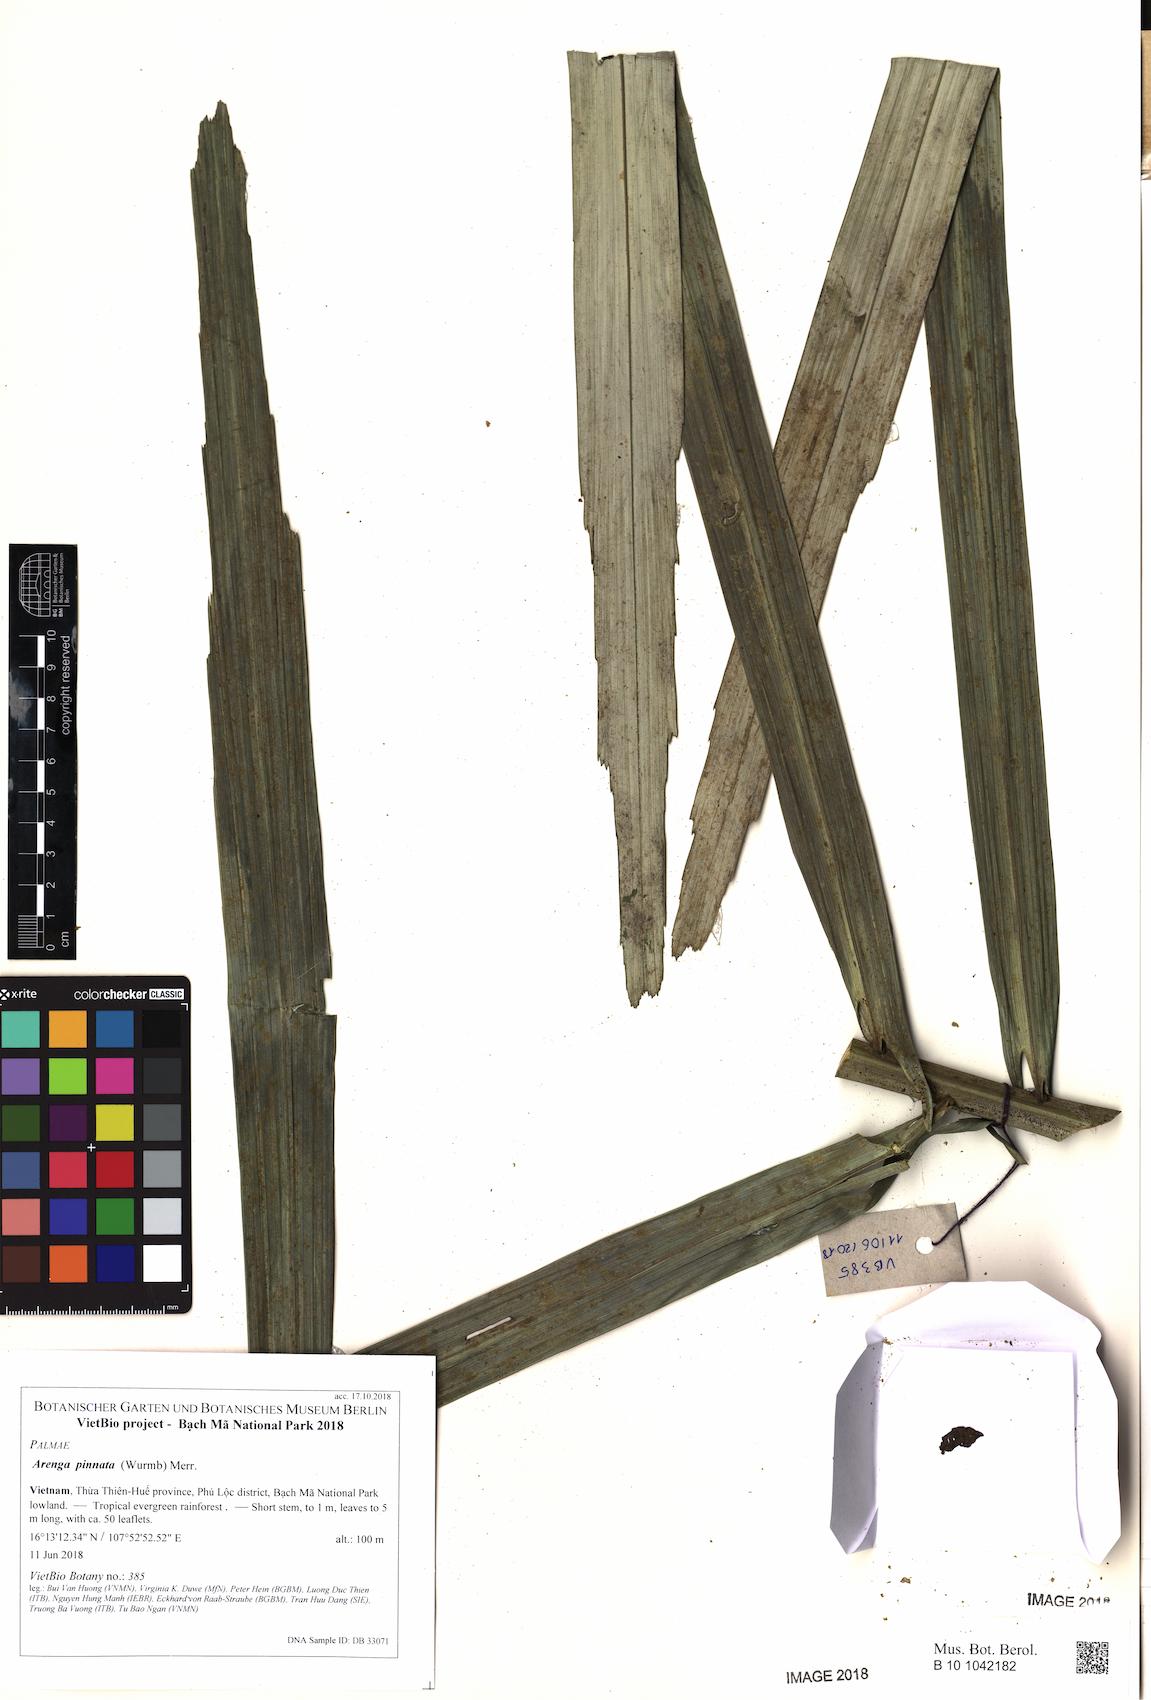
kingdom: Plantae
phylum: Tracheophyta
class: Liliopsida
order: Arecales
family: Arecaceae
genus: Arenga
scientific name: Arenga pinnata
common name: Black-fiber palm
